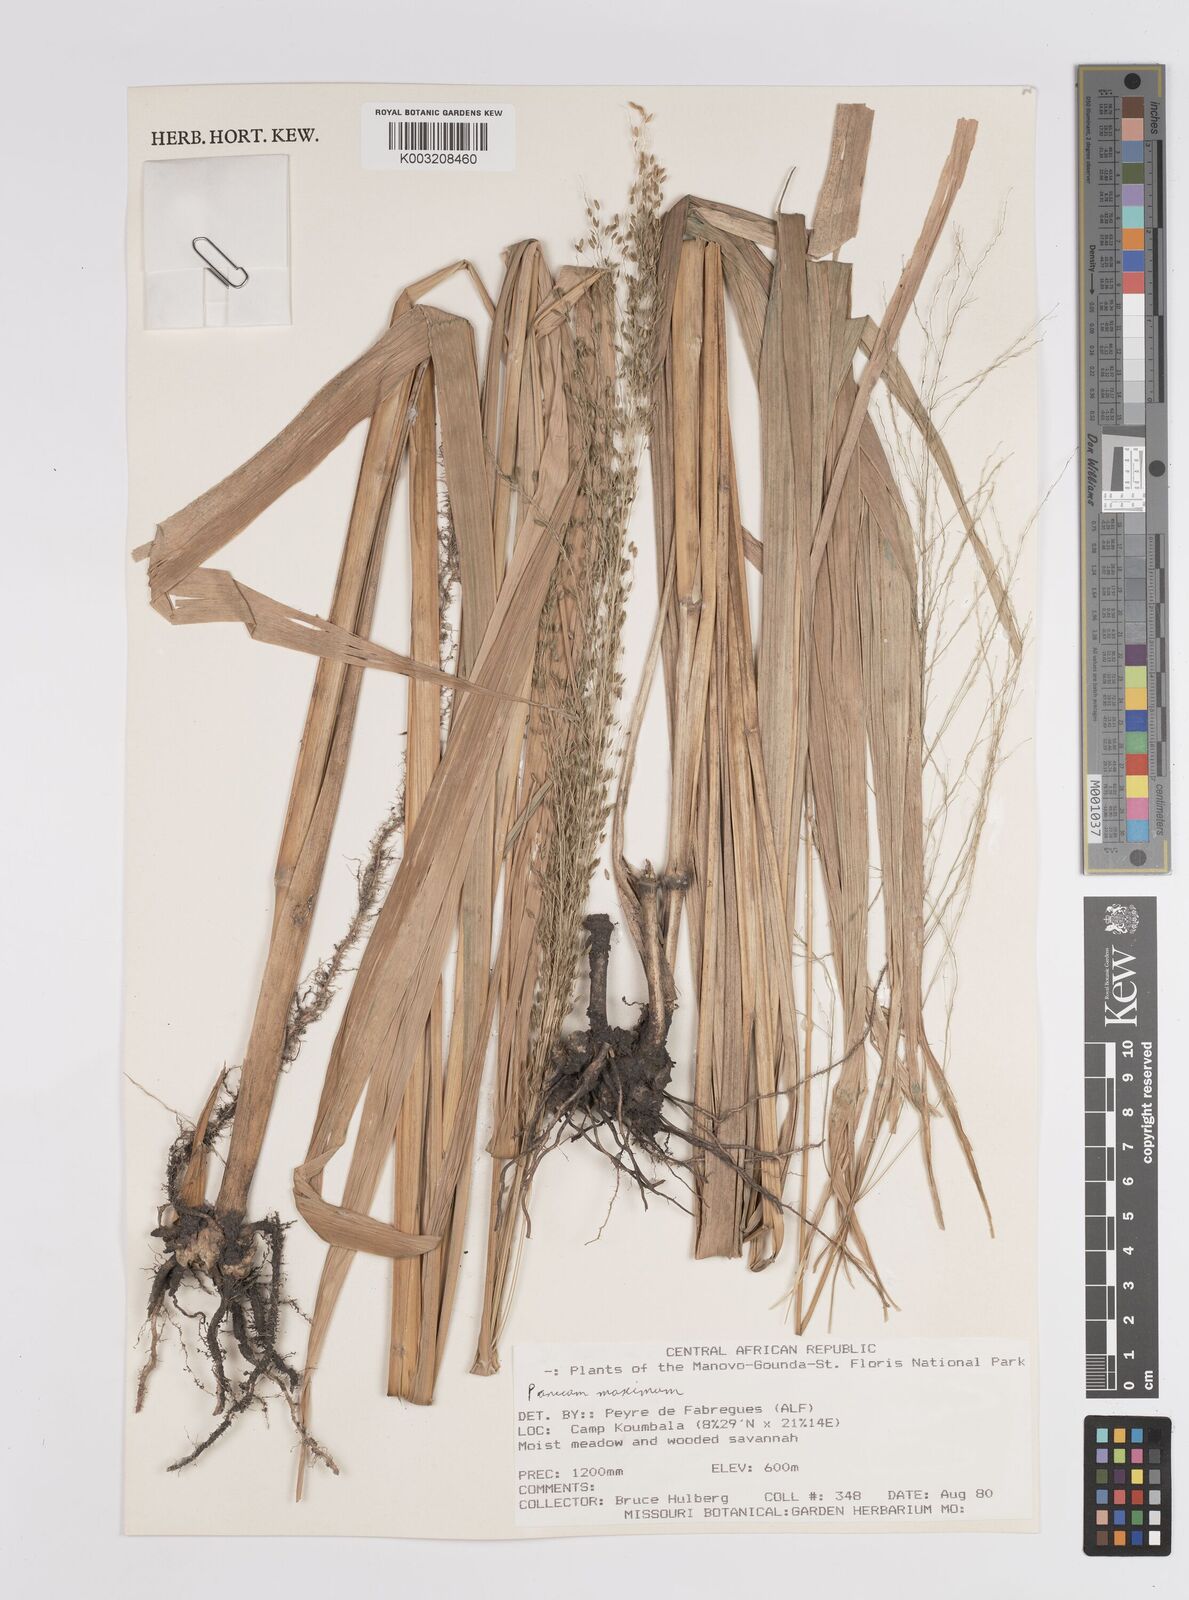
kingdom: Plantae
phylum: Tracheophyta
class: Liliopsida
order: Poales
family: Poaceae
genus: Megathyrsus
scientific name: Megathyrsus maximus
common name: Guineagrass
